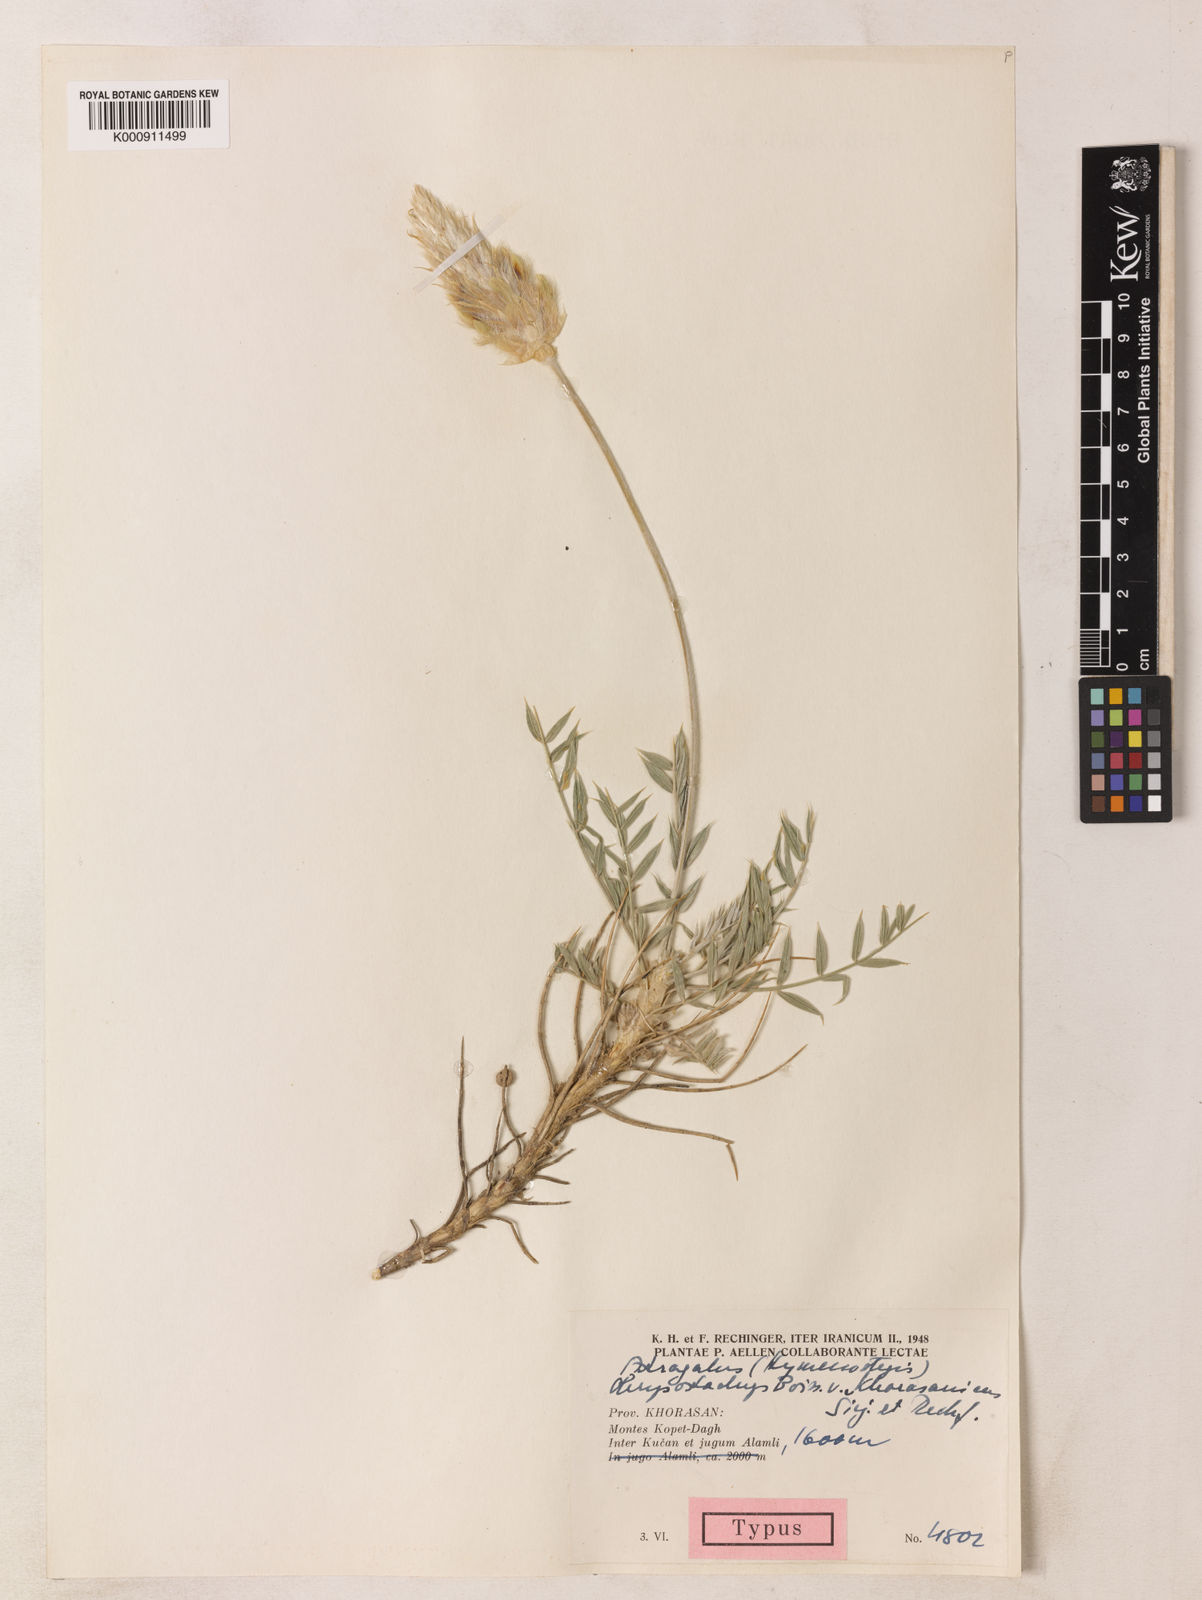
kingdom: Plantae
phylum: Tracheophyta
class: Magnoliopsida
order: Fabales
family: Fabaceae
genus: Astragalus
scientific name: Astragalus chrysostachys
